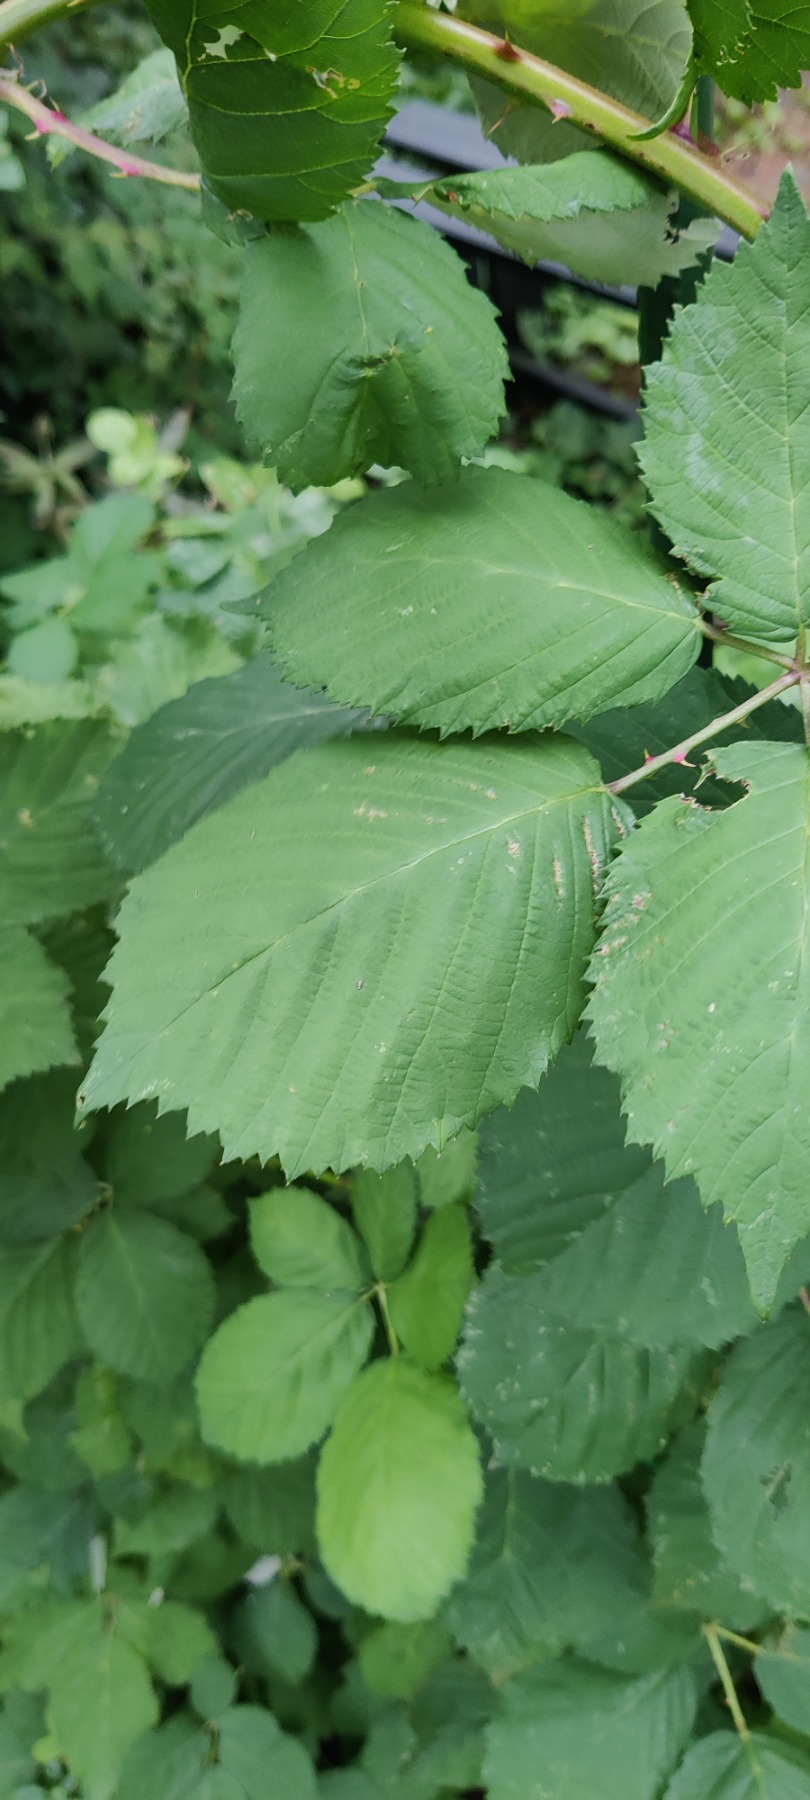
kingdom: Plantae
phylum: Tracheophyta
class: Magnoliopsida
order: Rosales
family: Rosaceae
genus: Rubus
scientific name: Rubus armeniacus
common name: Armensk brombær
